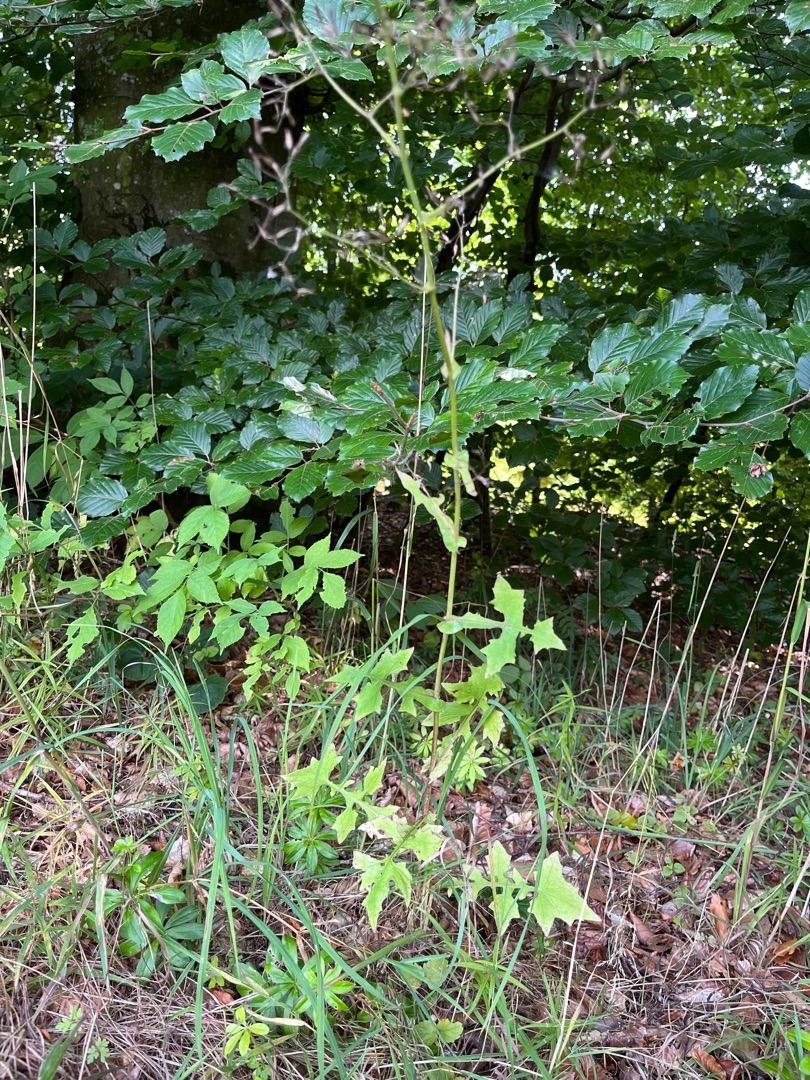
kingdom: Plantae
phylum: Tracheophyta
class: Magnoliopsida
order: Asterales
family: Asteraceae
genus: Mycelis
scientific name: Mycelis muralis
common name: Skov-salat
